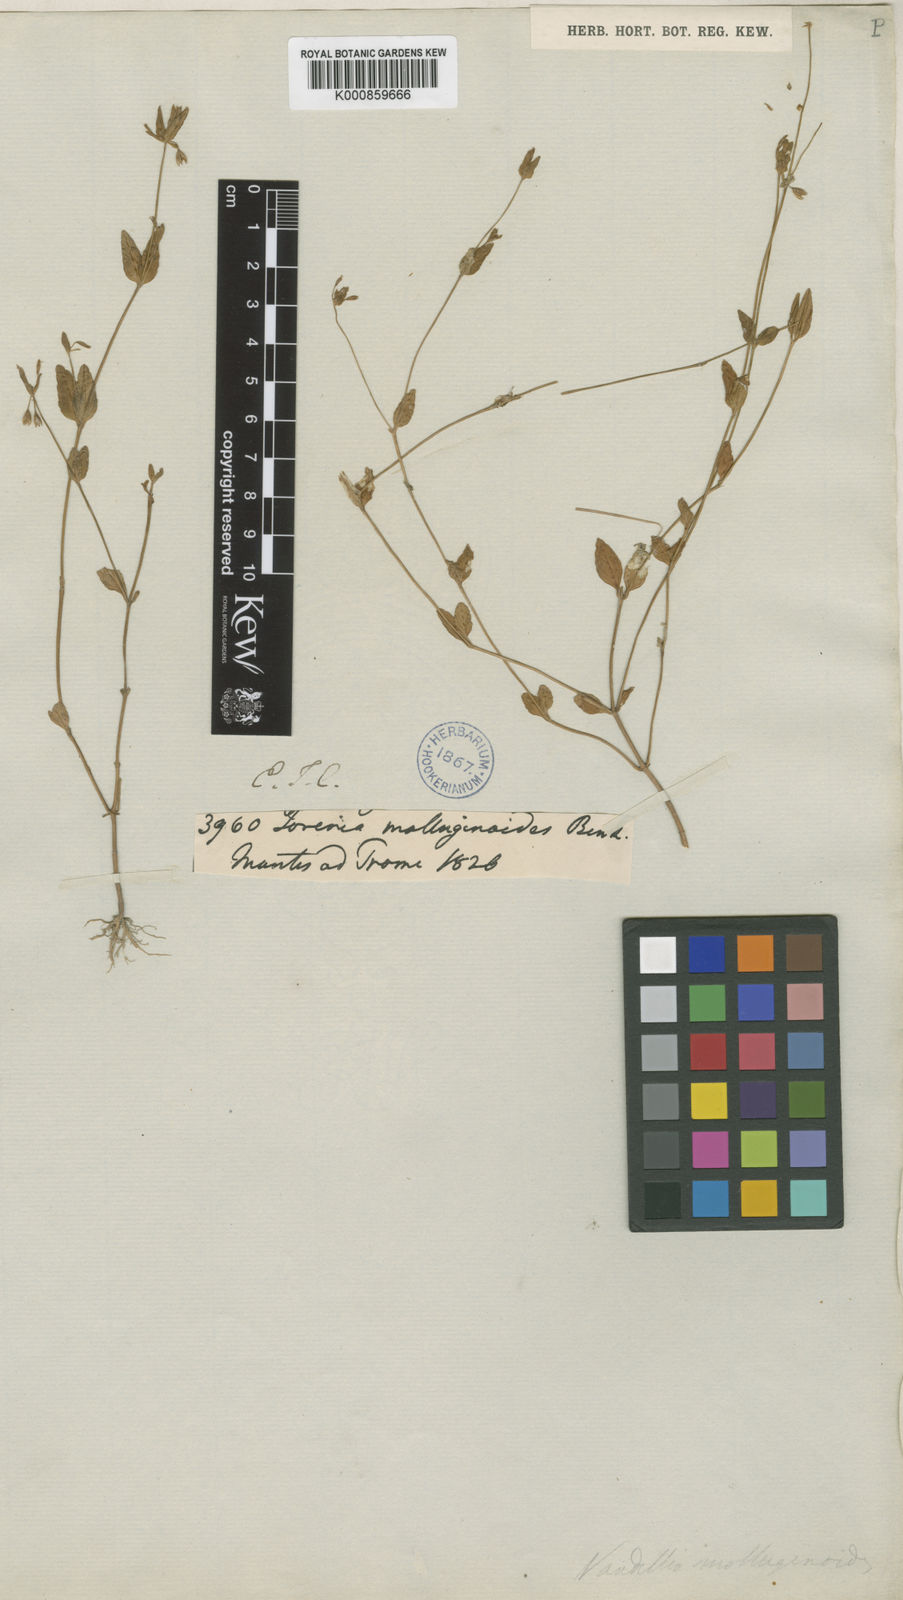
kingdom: Plantae
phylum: Tracheophyta
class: Magnoliopsida
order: Lamiales
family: Linderniaceae
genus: Torenia
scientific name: Torenia molluginoides
